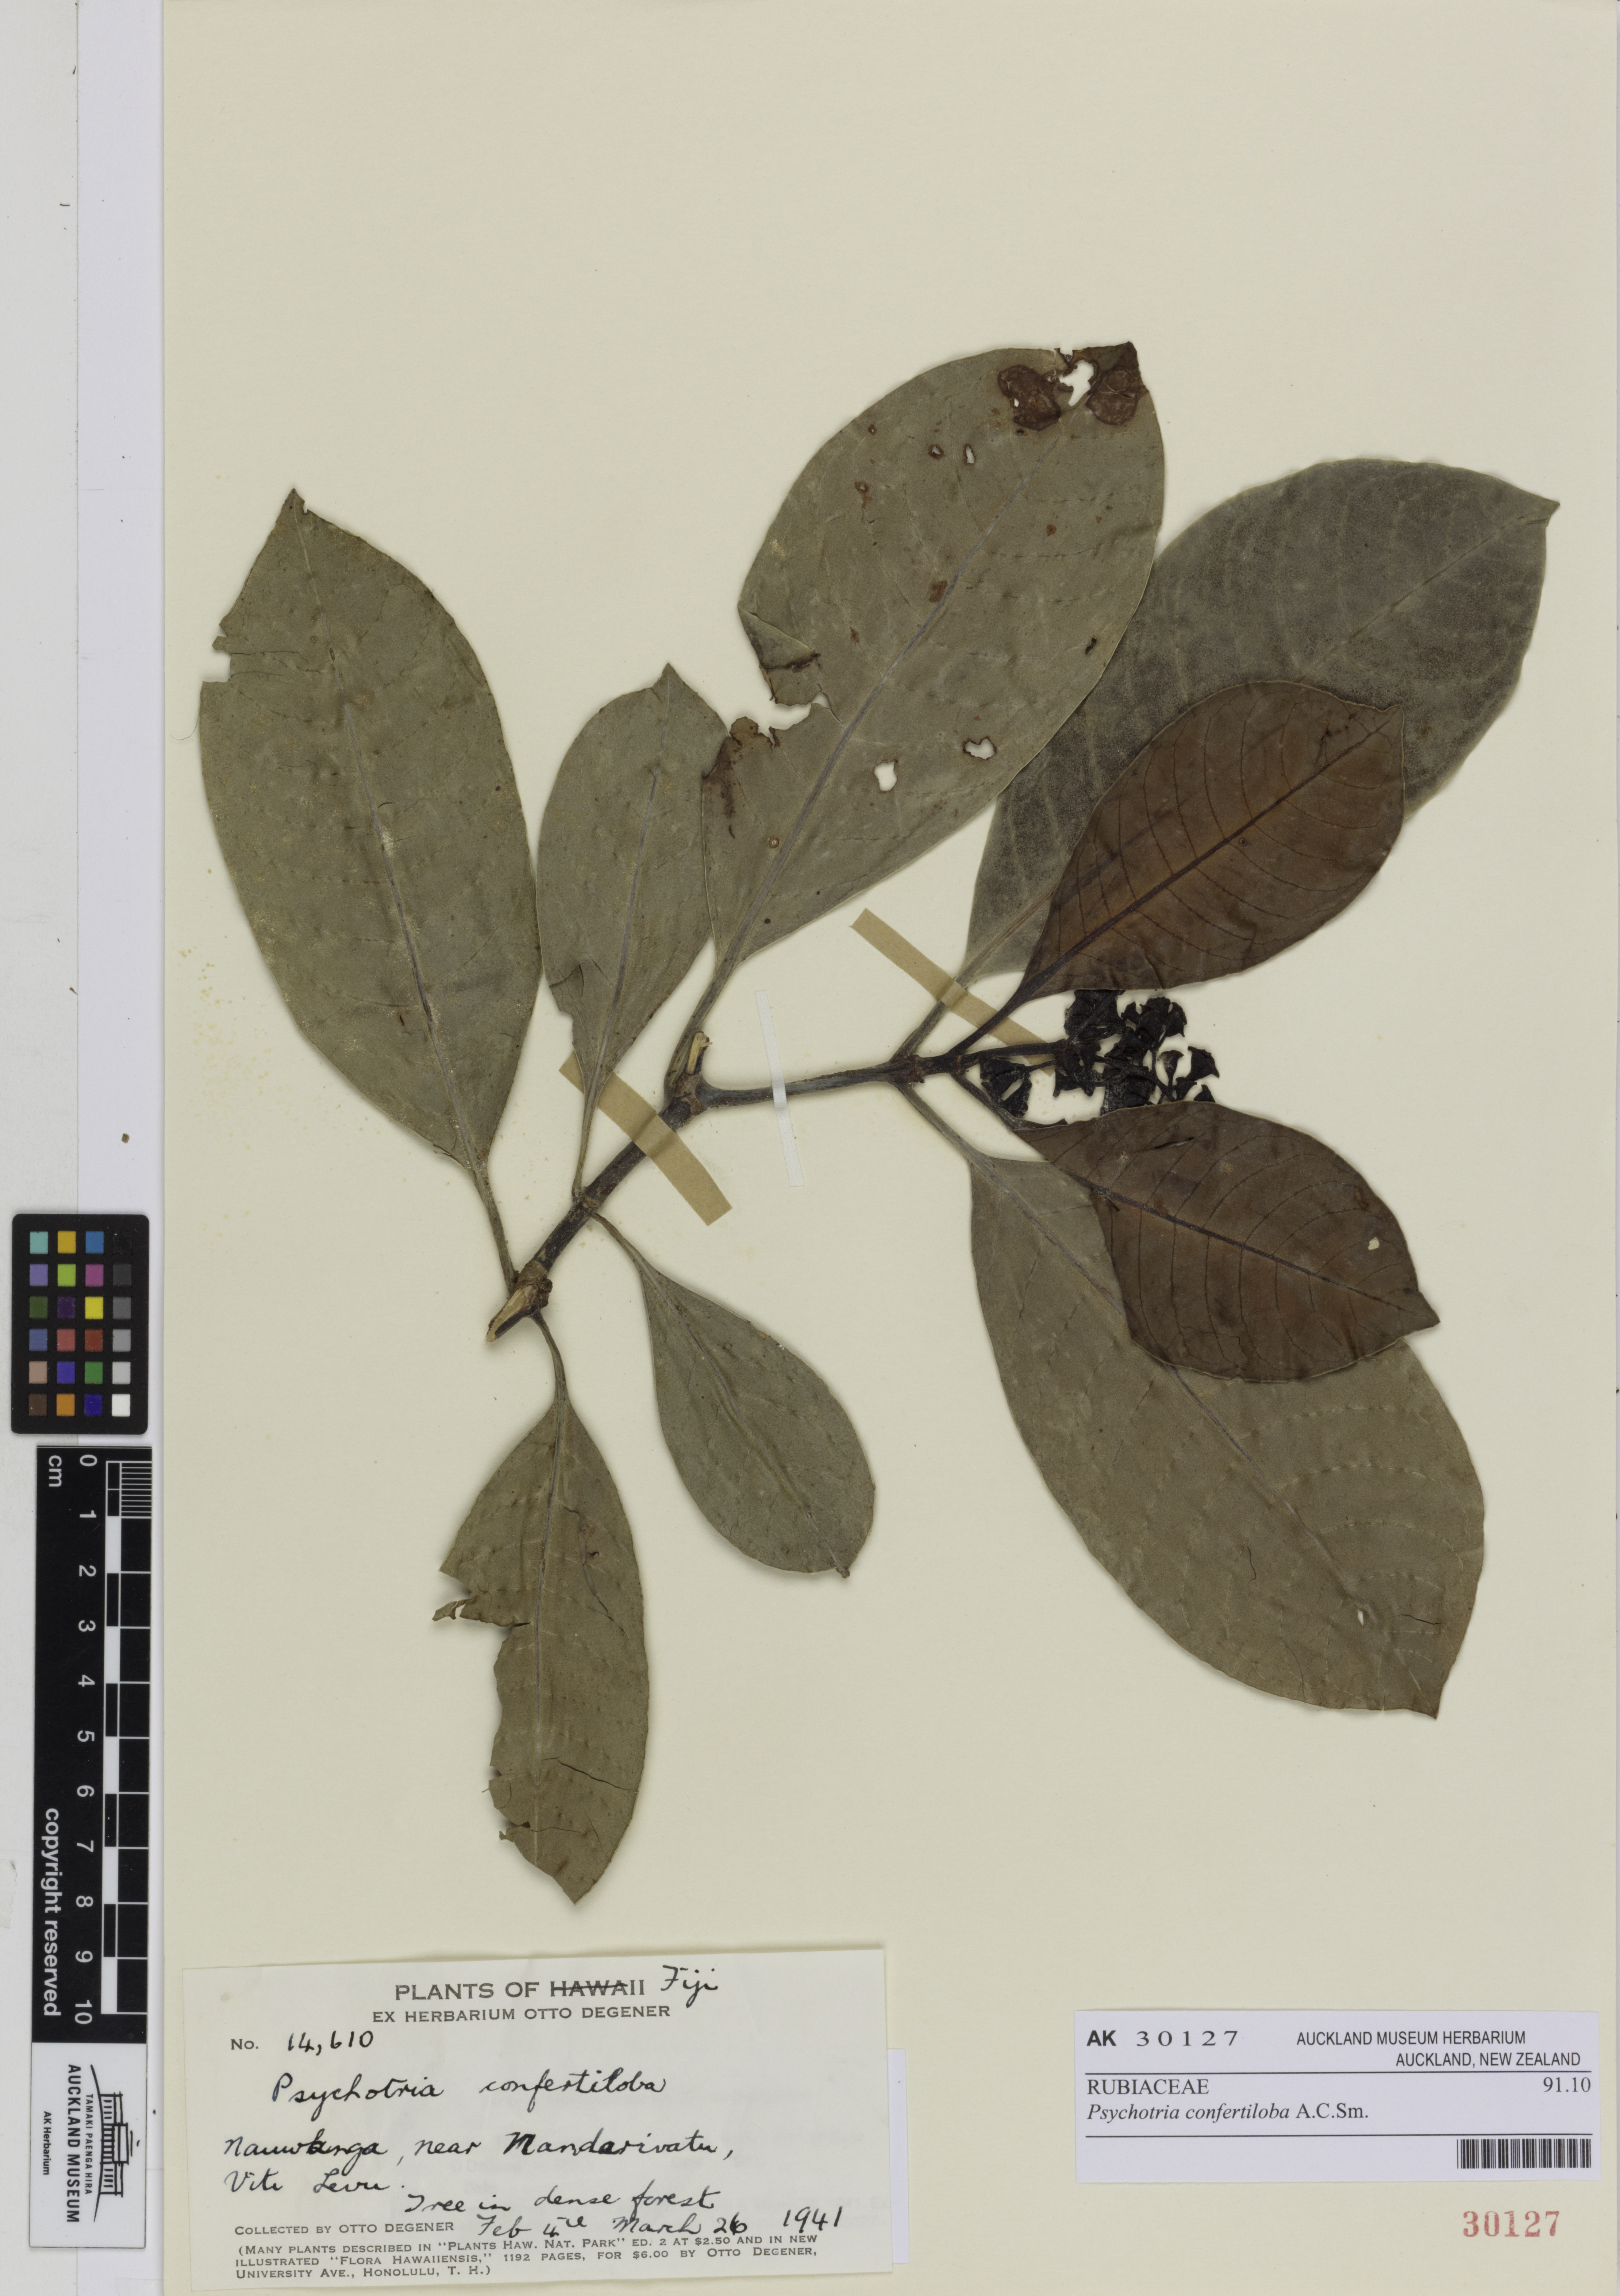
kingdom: Plantae
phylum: Tracheophyta
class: Magnoliopsida
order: Gentianales
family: Rubiaceae
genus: Psychotria
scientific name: Psychotria confertiloba
